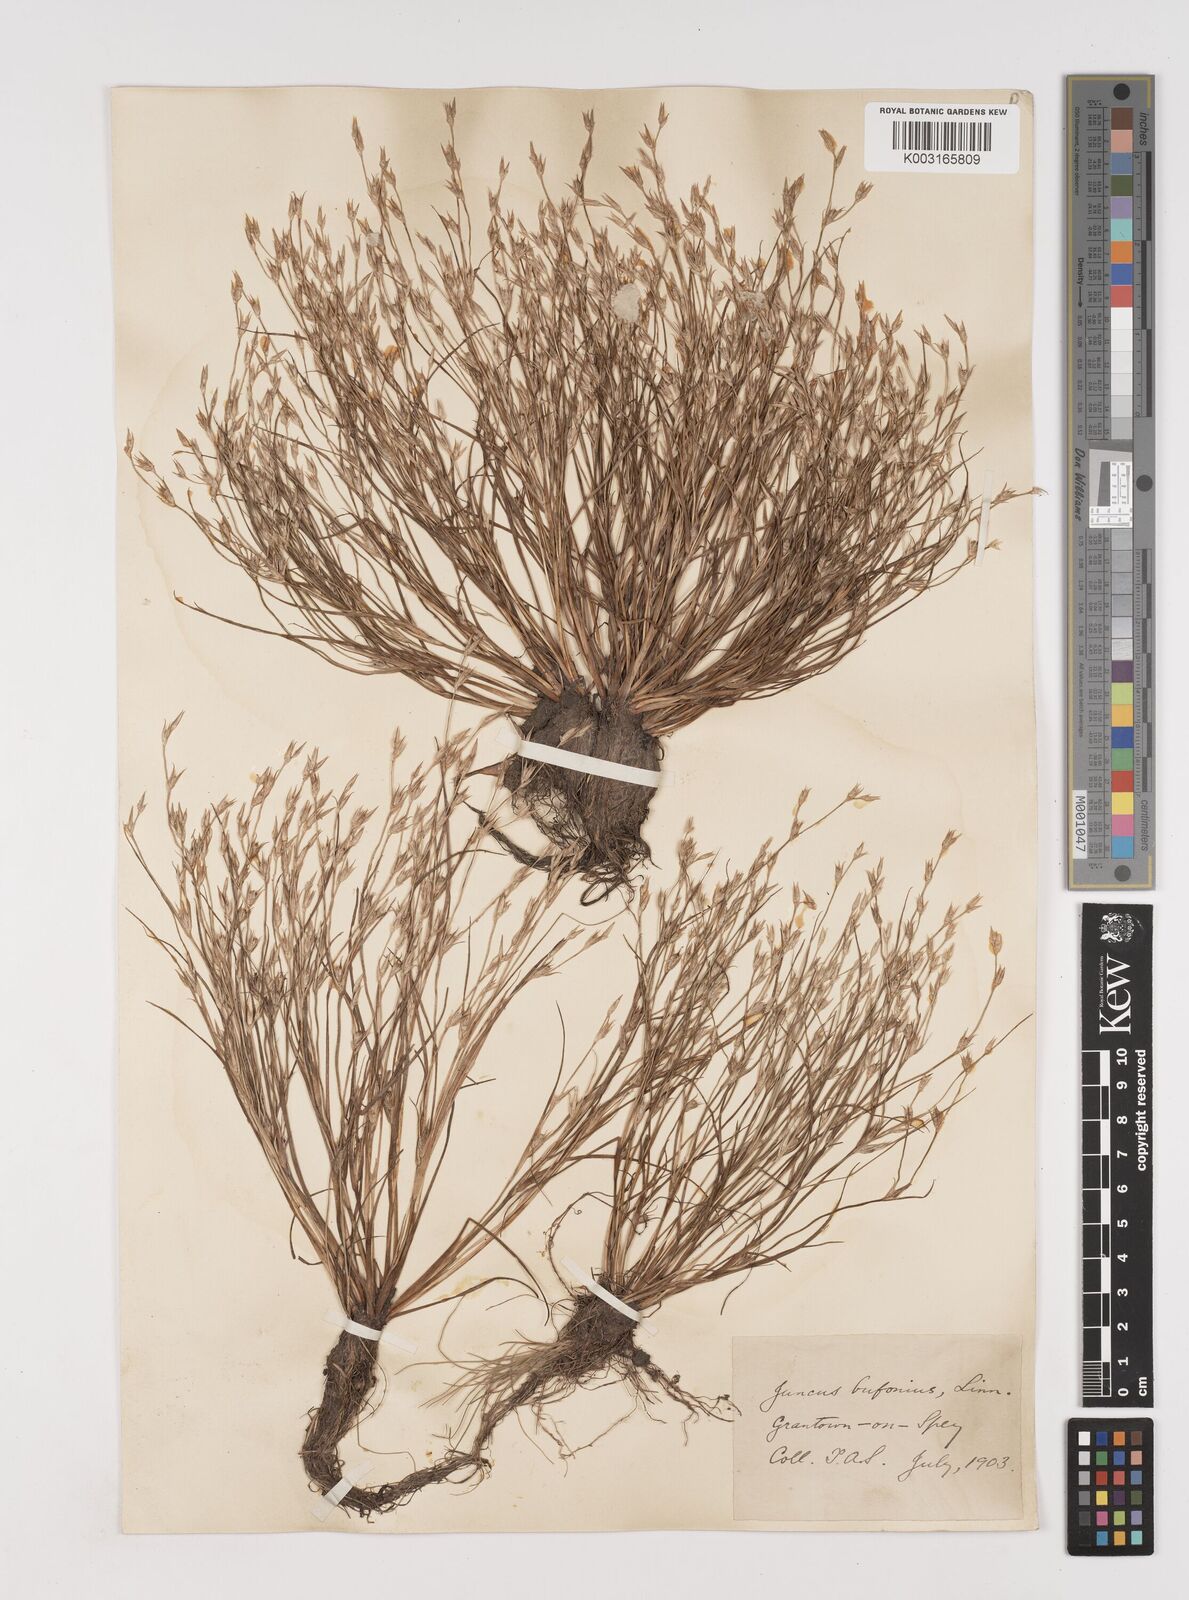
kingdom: Plantae
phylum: Tracheophyta
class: Liliopsida
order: Poales
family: Juncaceae
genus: Juncus
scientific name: Juncus bufonius
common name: Toad rush
